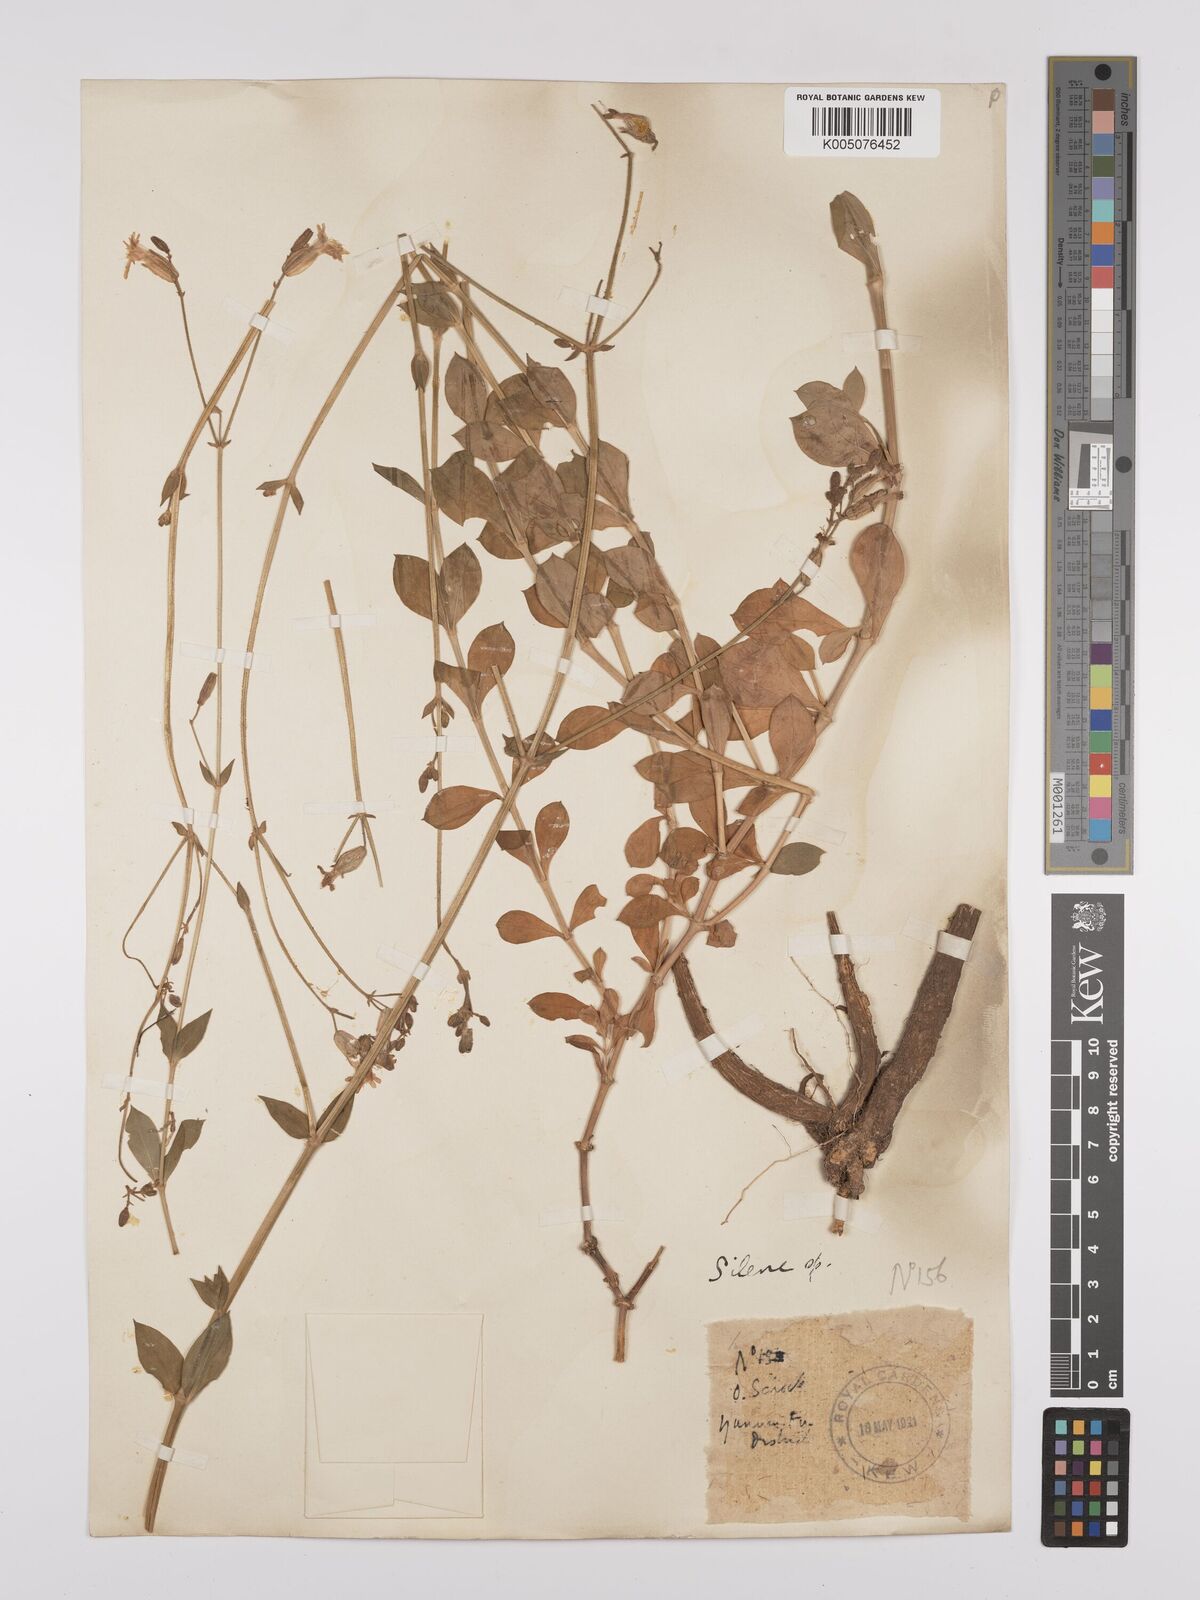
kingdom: Plantae
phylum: Tracheophyta
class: Magnoliopsida
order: Caryophyllales
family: Caryophyllaceae
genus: Silene
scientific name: Silene
